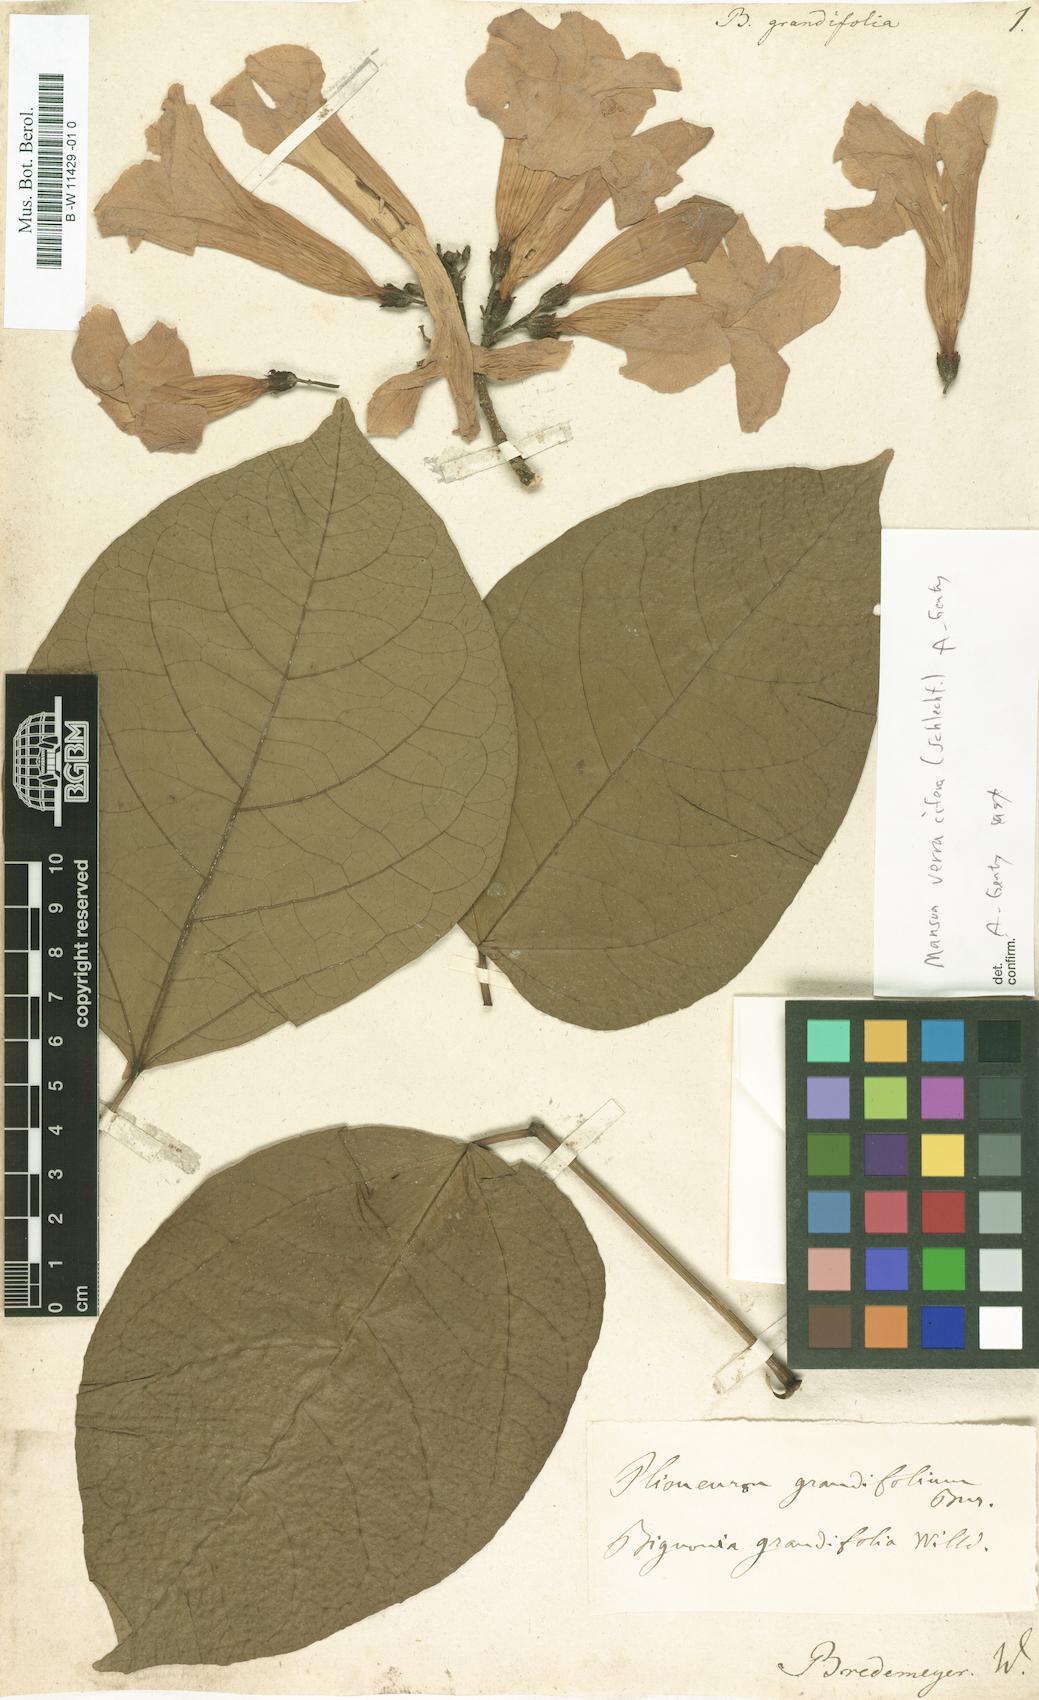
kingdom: Plantae
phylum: Tracheophyta
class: Magnoliopsida
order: Lamiales
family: Bignoniaceae
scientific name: Bignoniaceae
